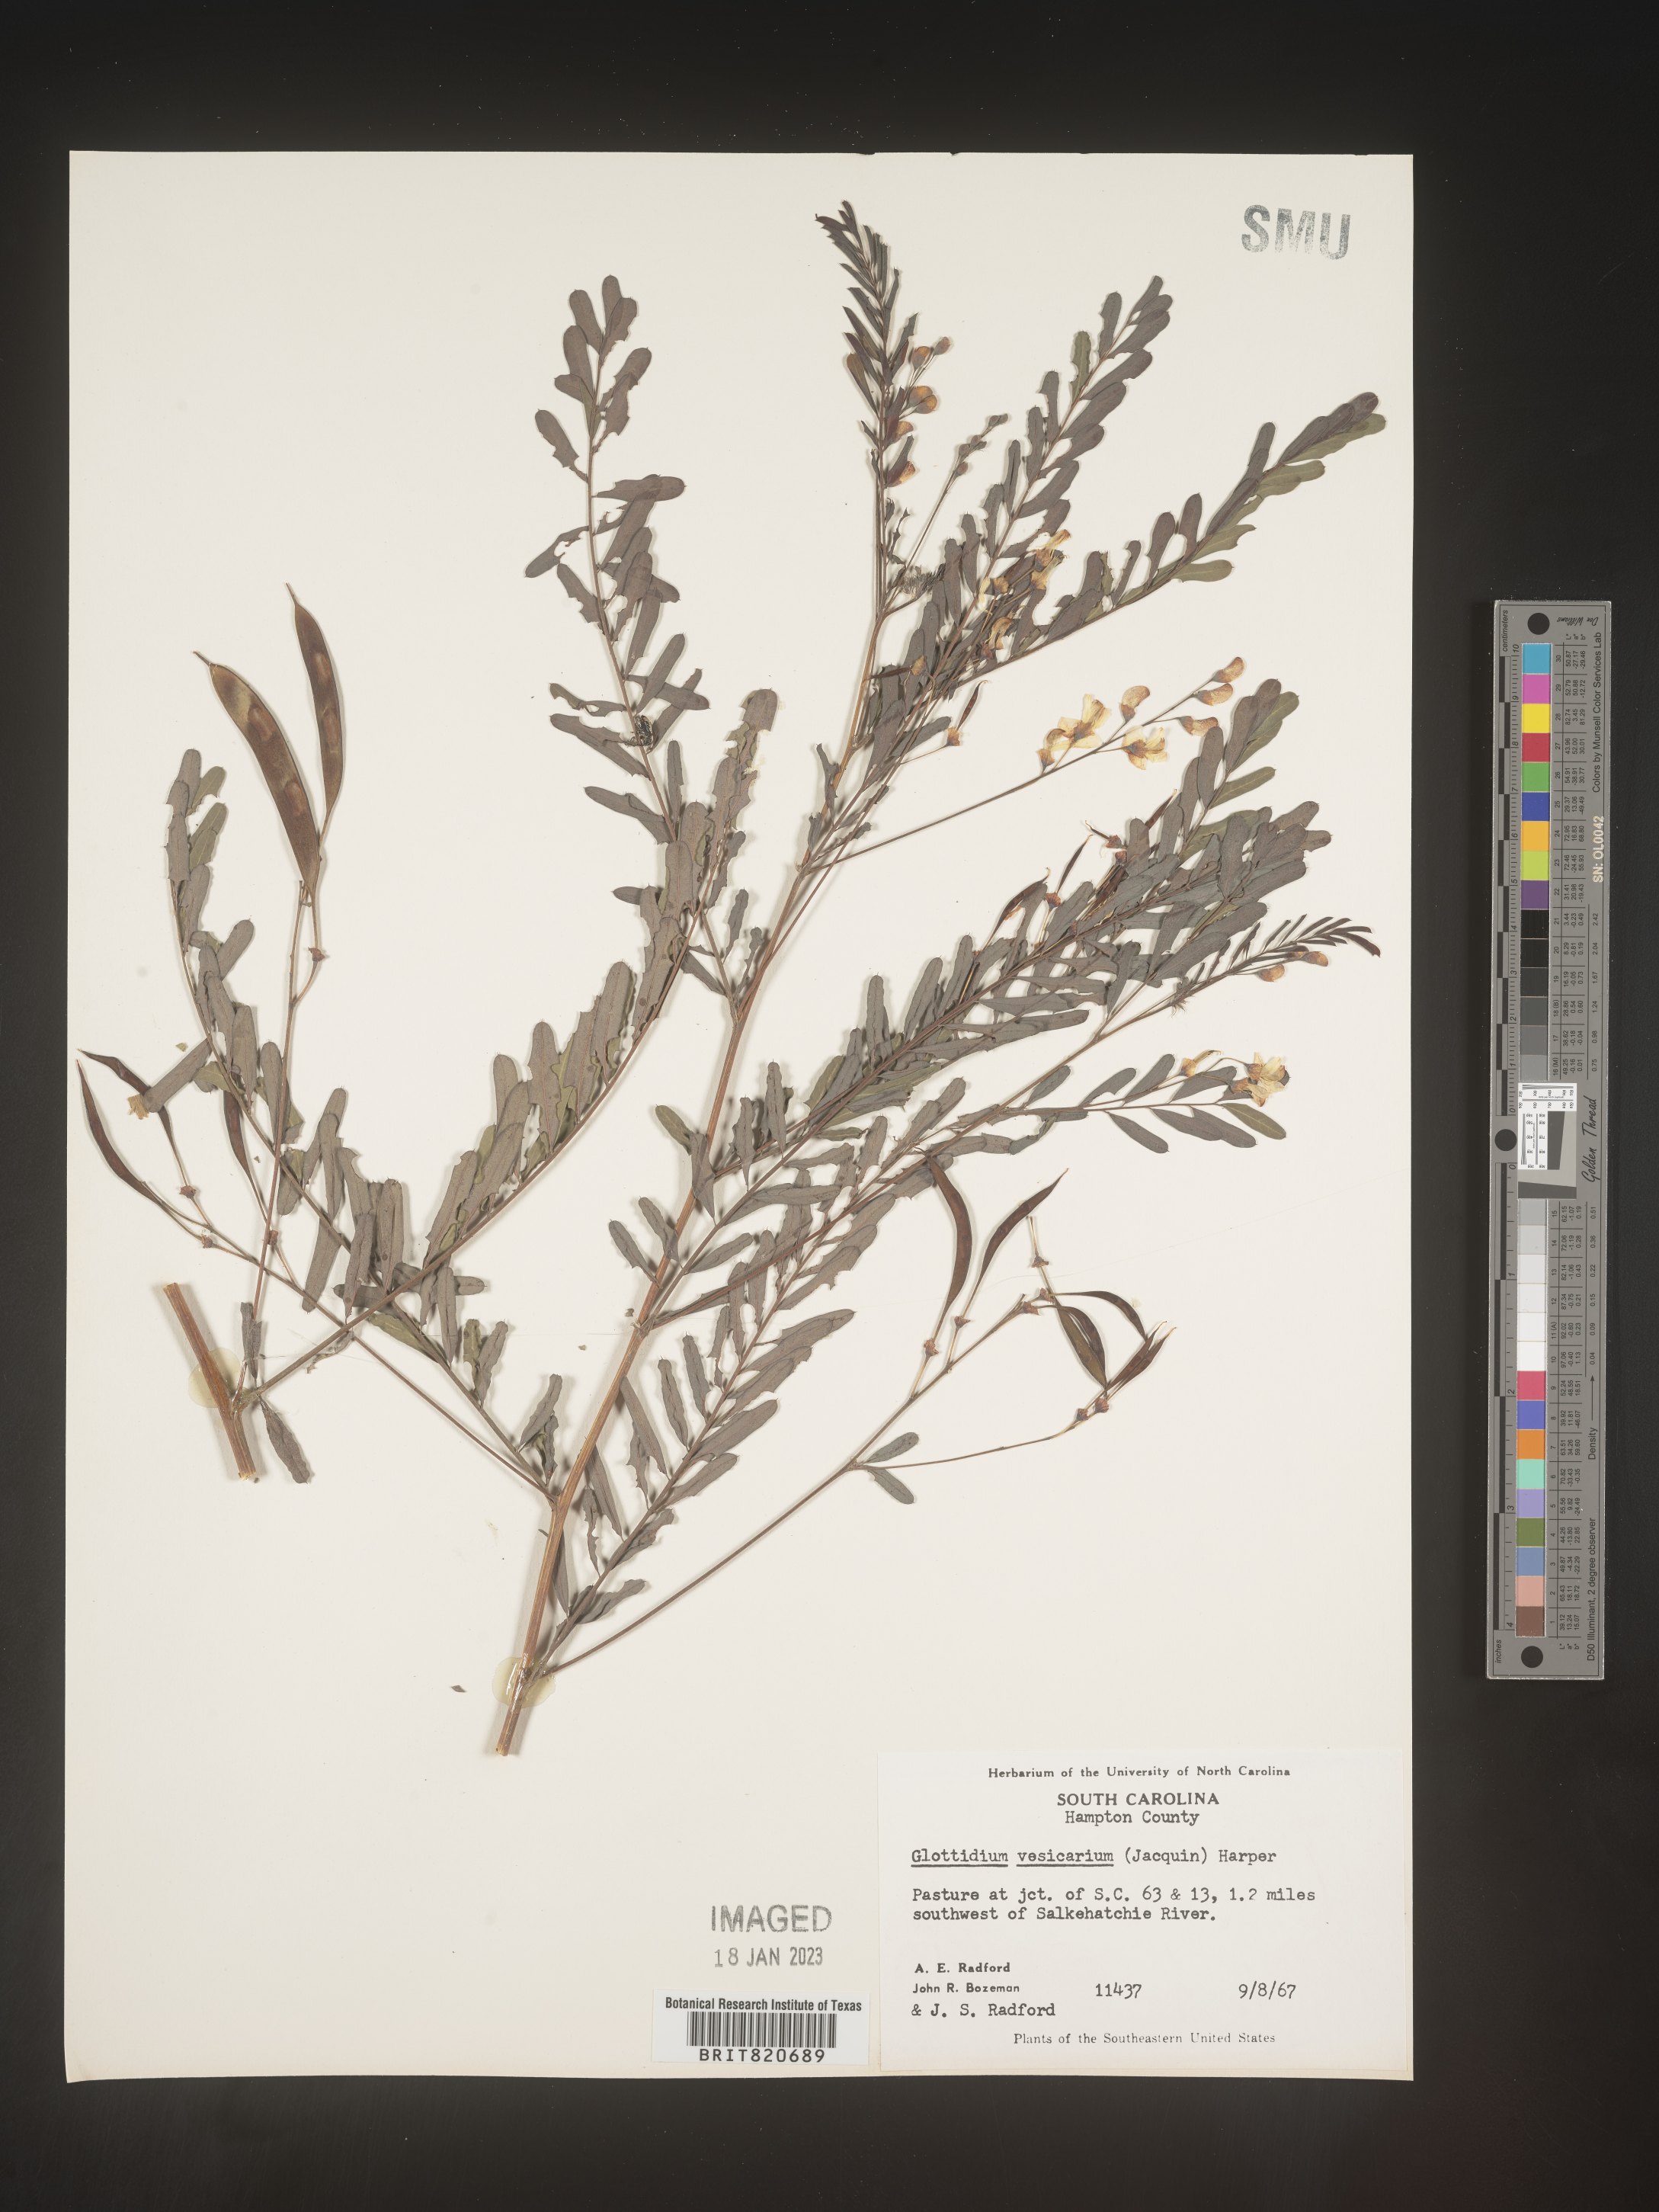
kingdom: Plantae
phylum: Tracheophyta
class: Magnoliopsida
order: Fabales
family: Fabaceae
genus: Sesbania
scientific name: Sesbania vesicaria
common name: Bagpod
